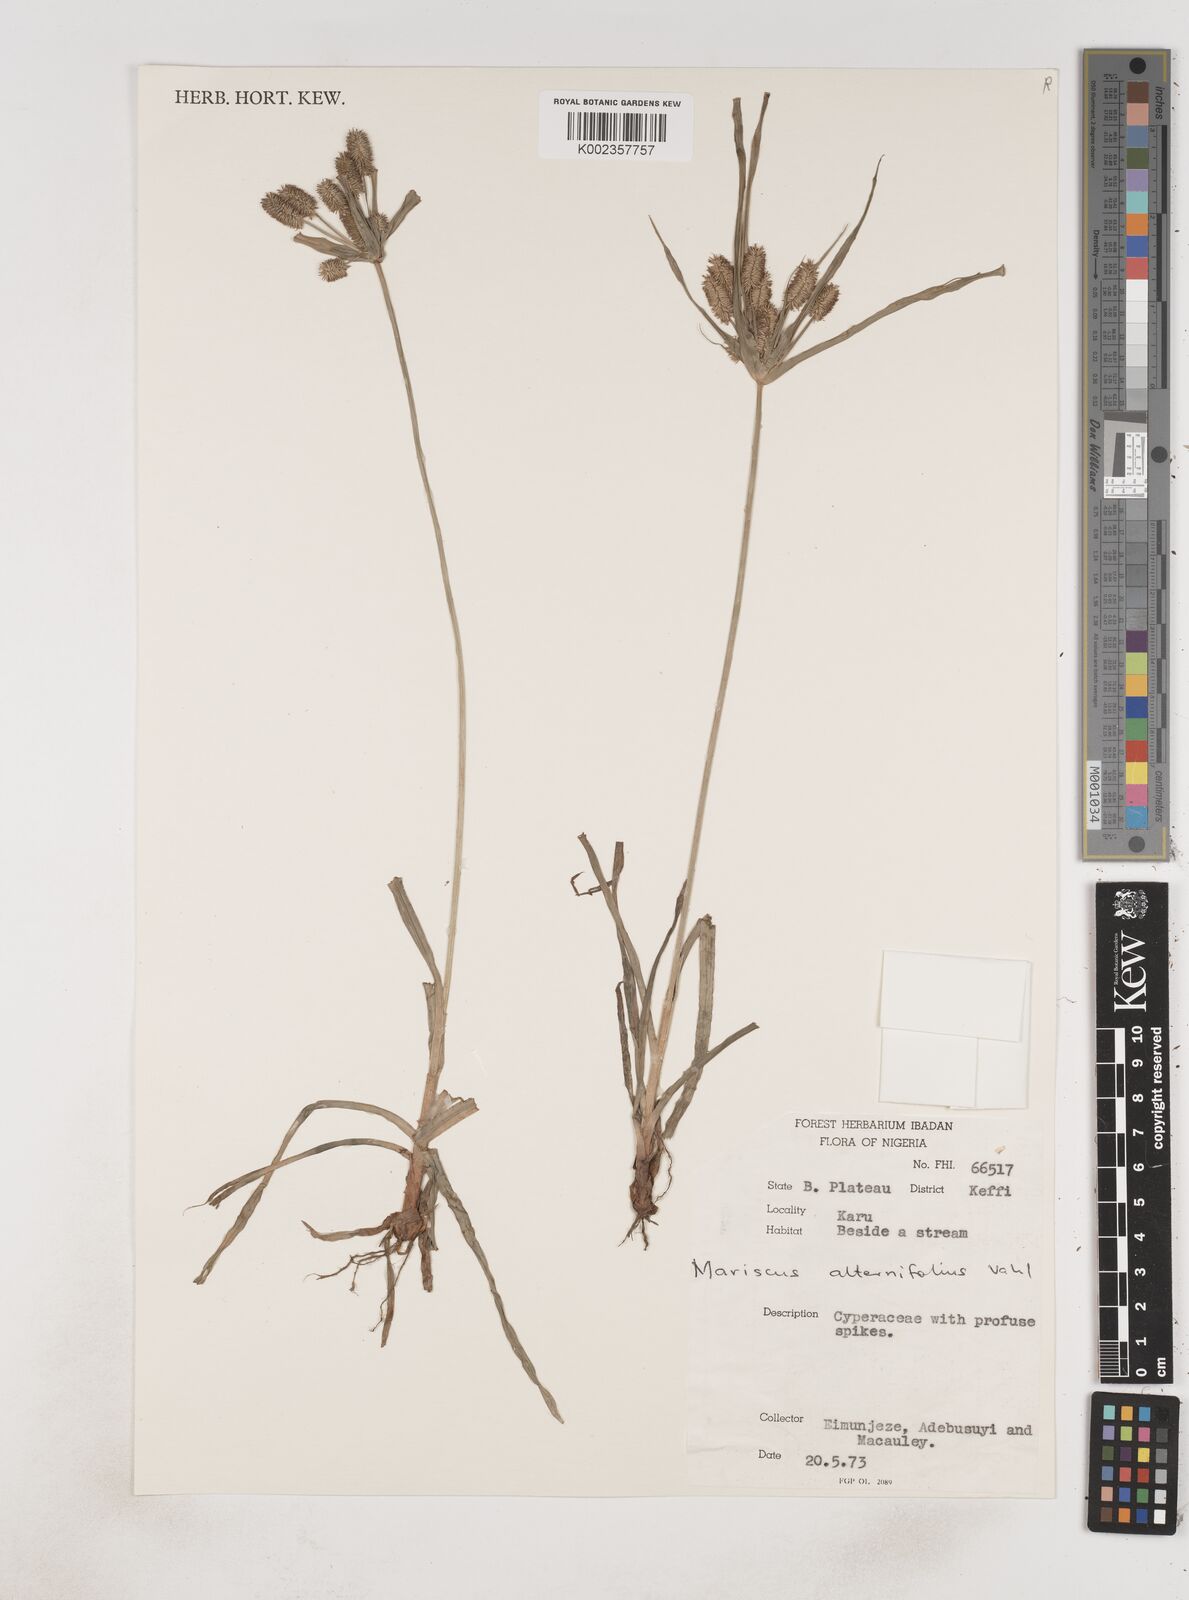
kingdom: Plantae
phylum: Tracheophyta
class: Liliopsida
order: Poales
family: Cyperaceae
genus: Cyperus
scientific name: Cyperus sublimis
